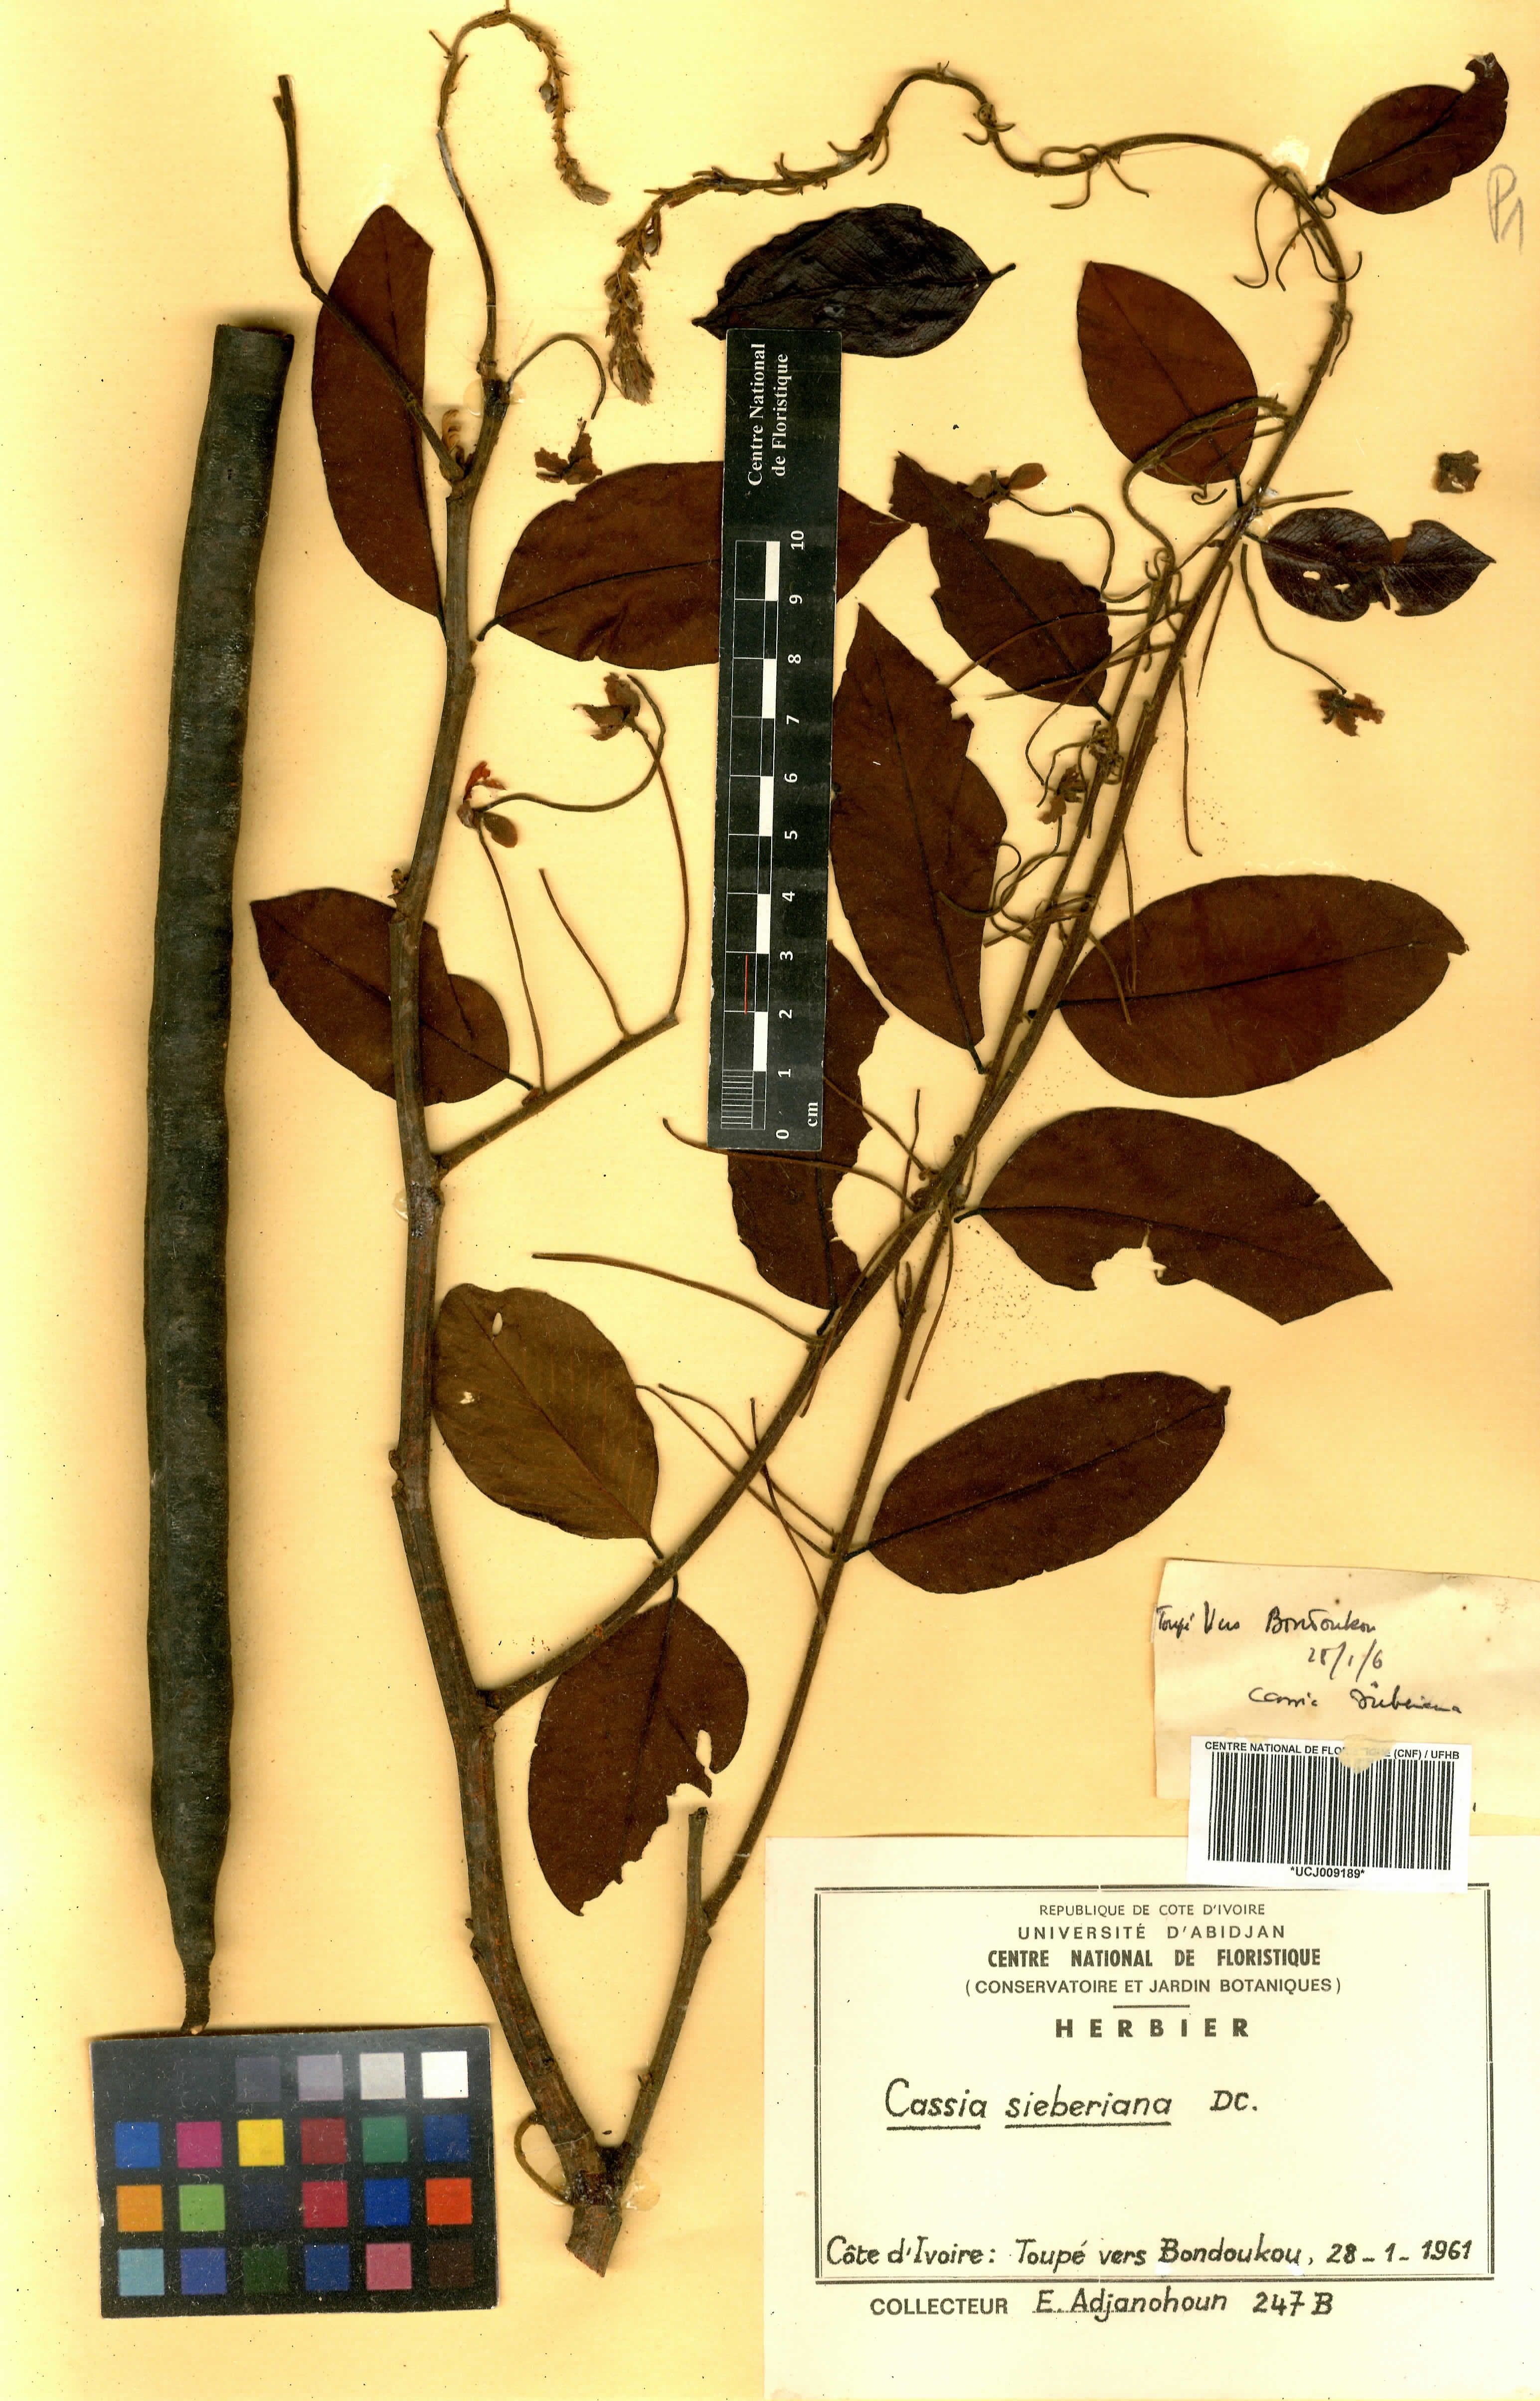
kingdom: Plantae
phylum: Tracheophyta
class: Magnoliopsida
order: Fabales
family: Fabaceae
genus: Cassia
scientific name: Cassia sieberiana
